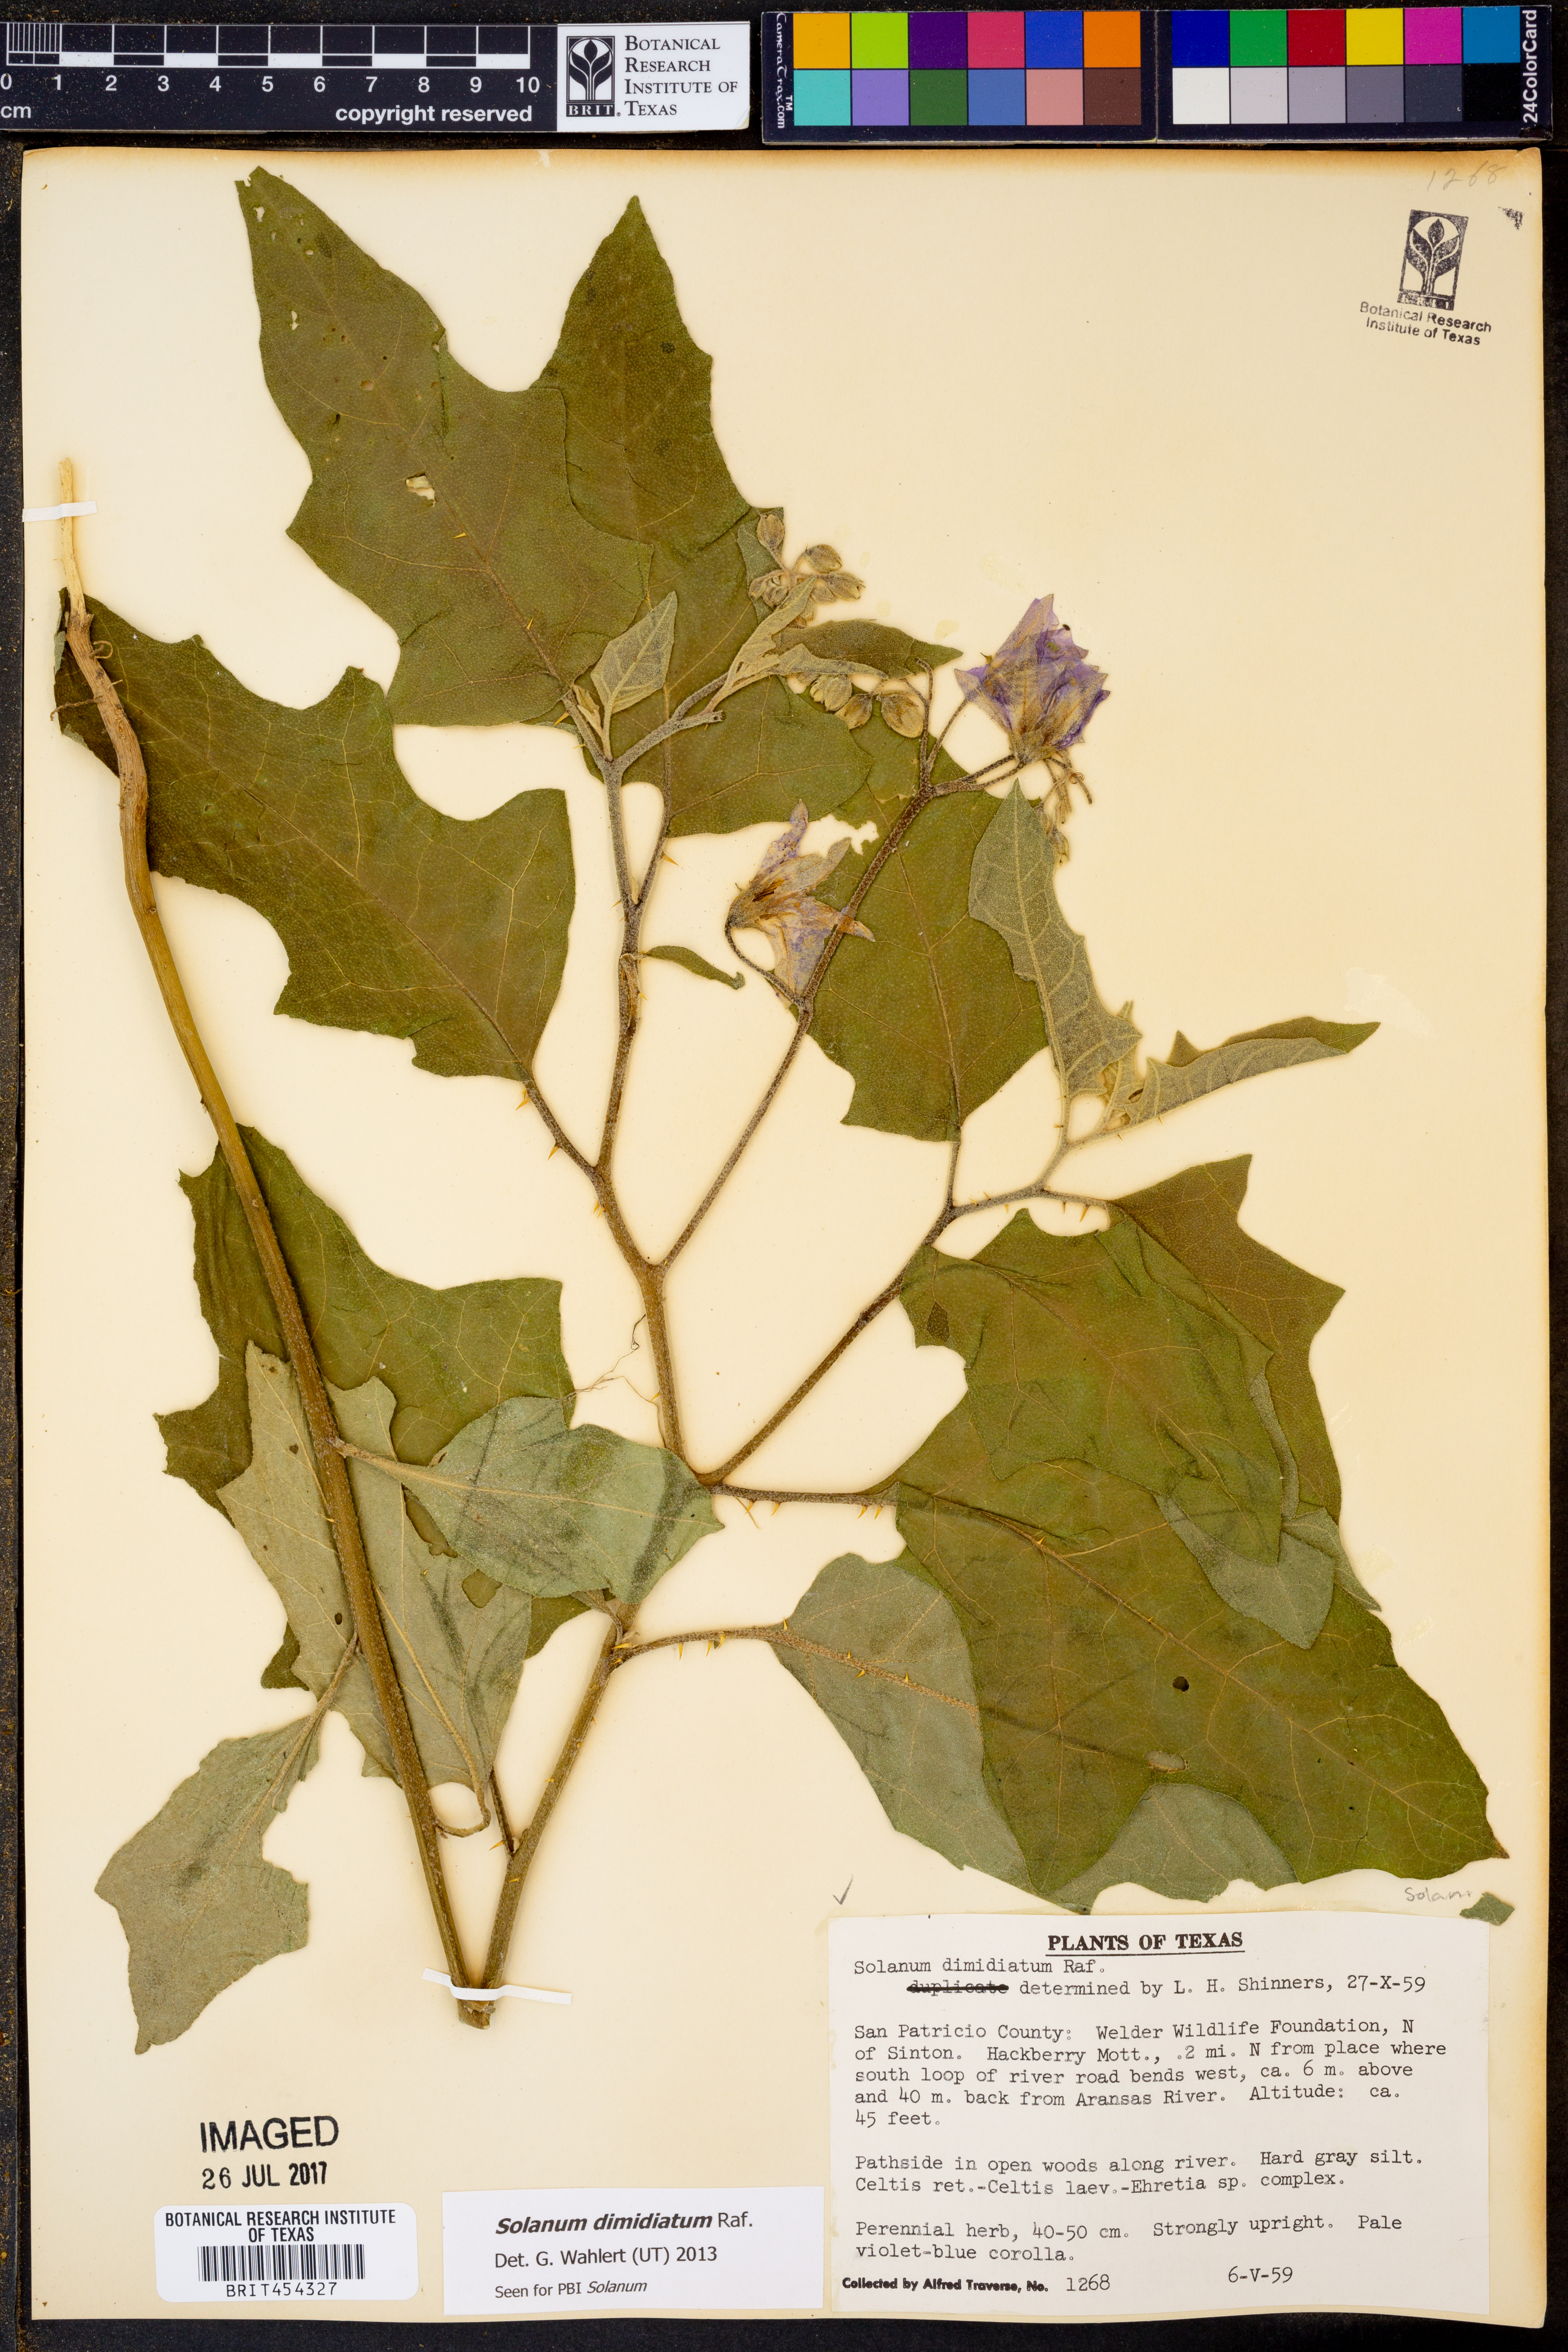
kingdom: Plantae
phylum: Tracheophyta
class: Magnoliopsida
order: Solanales
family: Solanaceae
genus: Solanum
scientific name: Solanum dimidiatum
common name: Carolina horse-nettle
